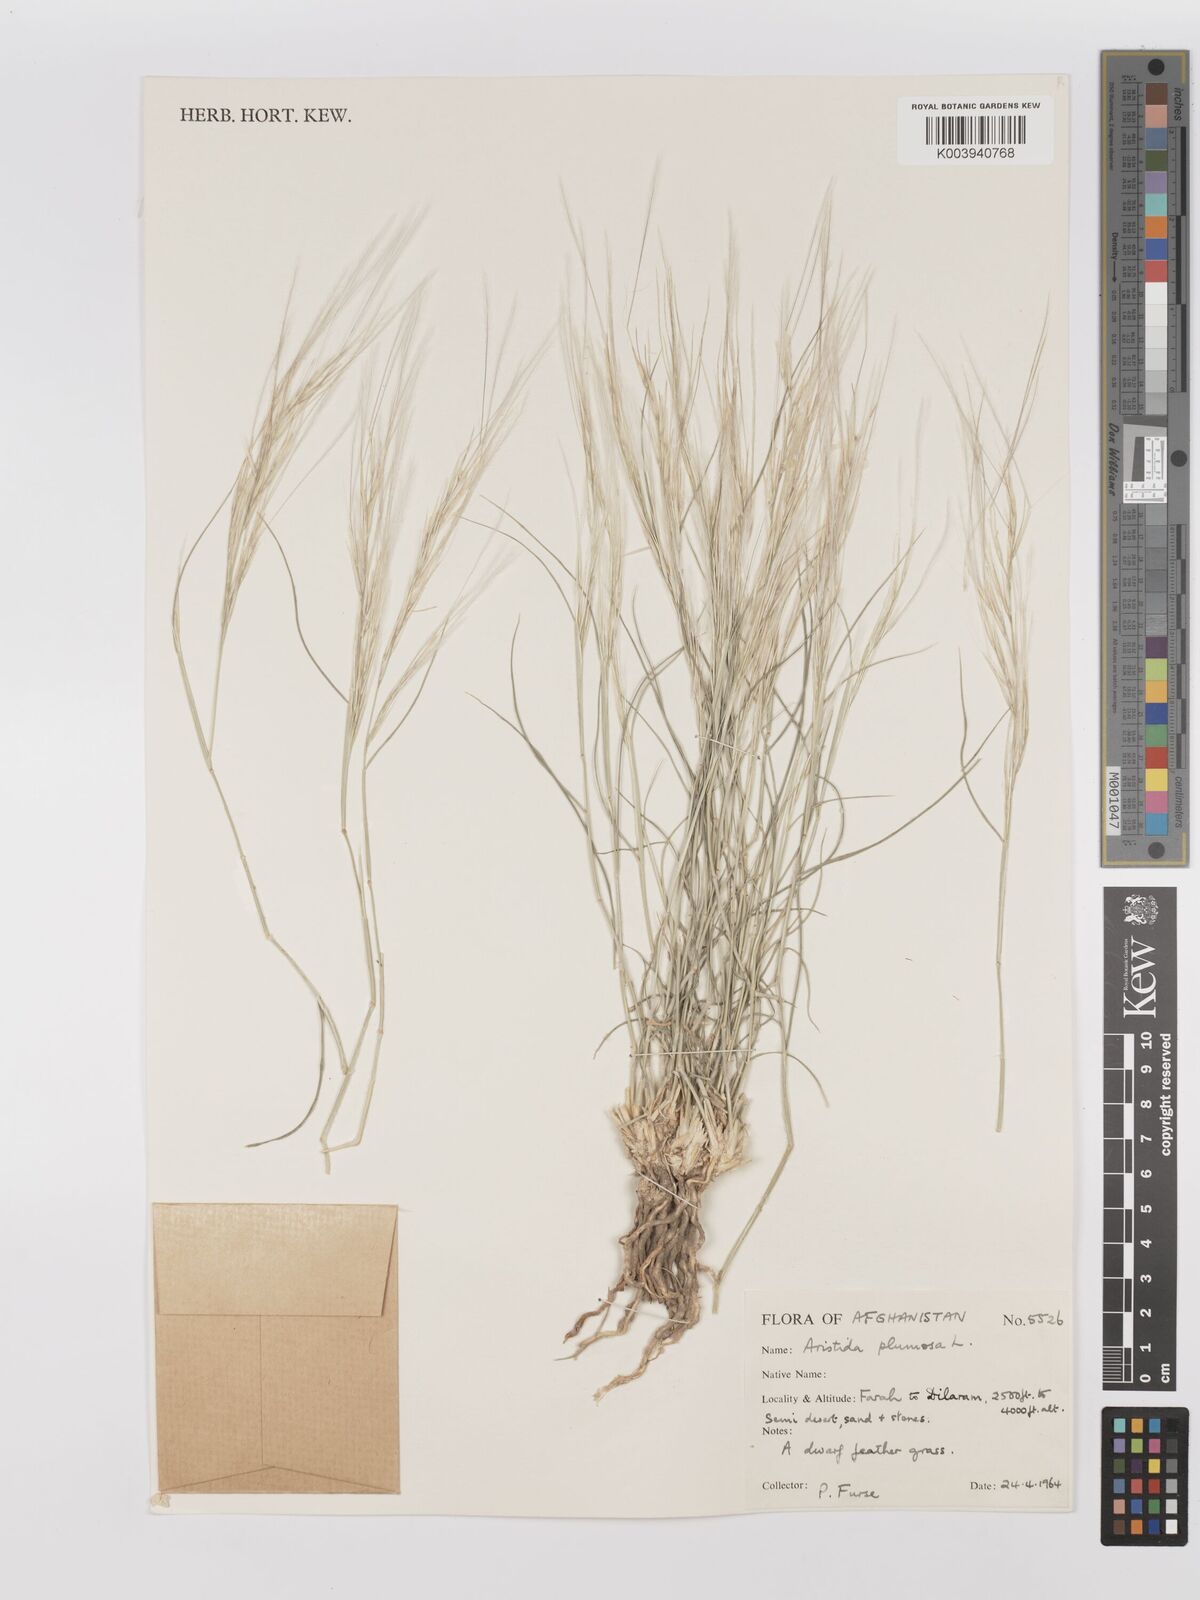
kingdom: Plantae
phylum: Tracheophyta
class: Liliopsida
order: Poales
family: Poaceae
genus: Stipagrostis
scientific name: Stipagrostis plumosa
